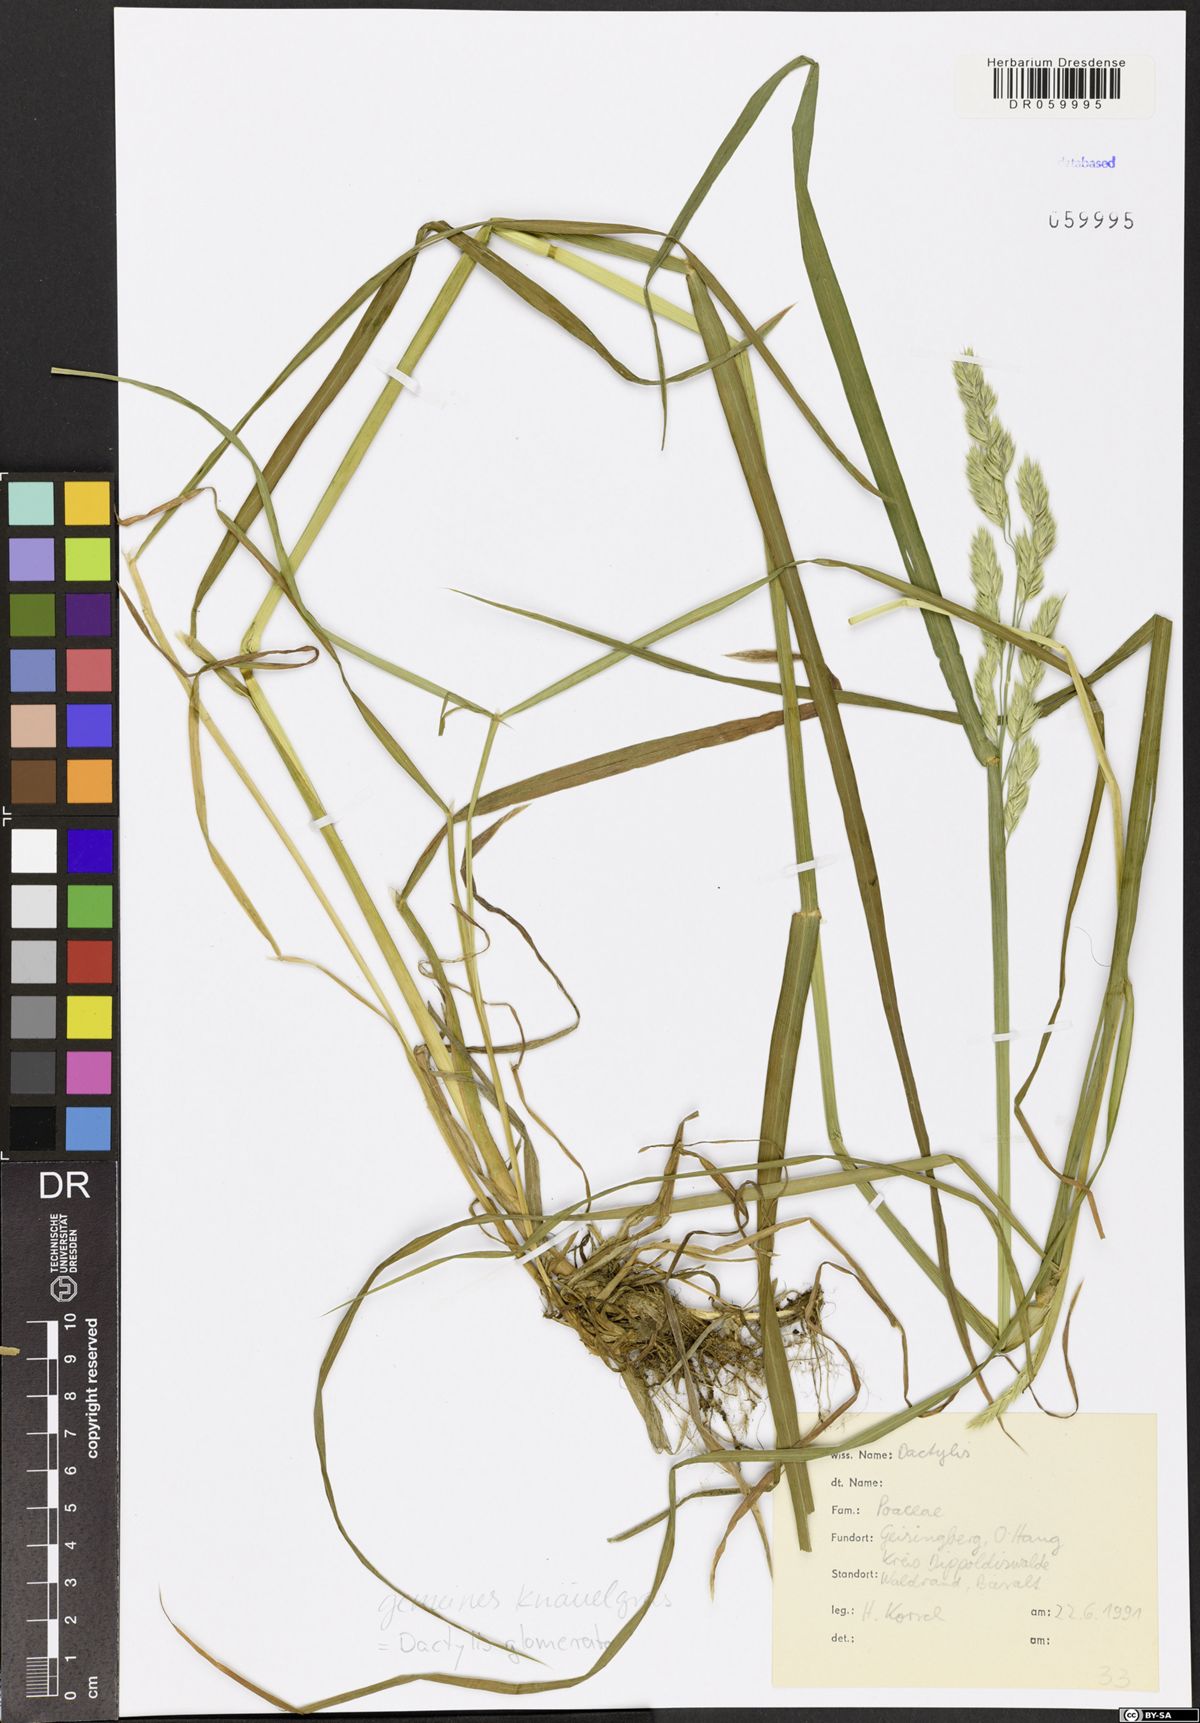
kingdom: Plantae
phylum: Tracheophyta
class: Liliopsida
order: Poales
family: Poaceae
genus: Dactylis
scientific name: Dactylis glomerata
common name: Orchardgrass
